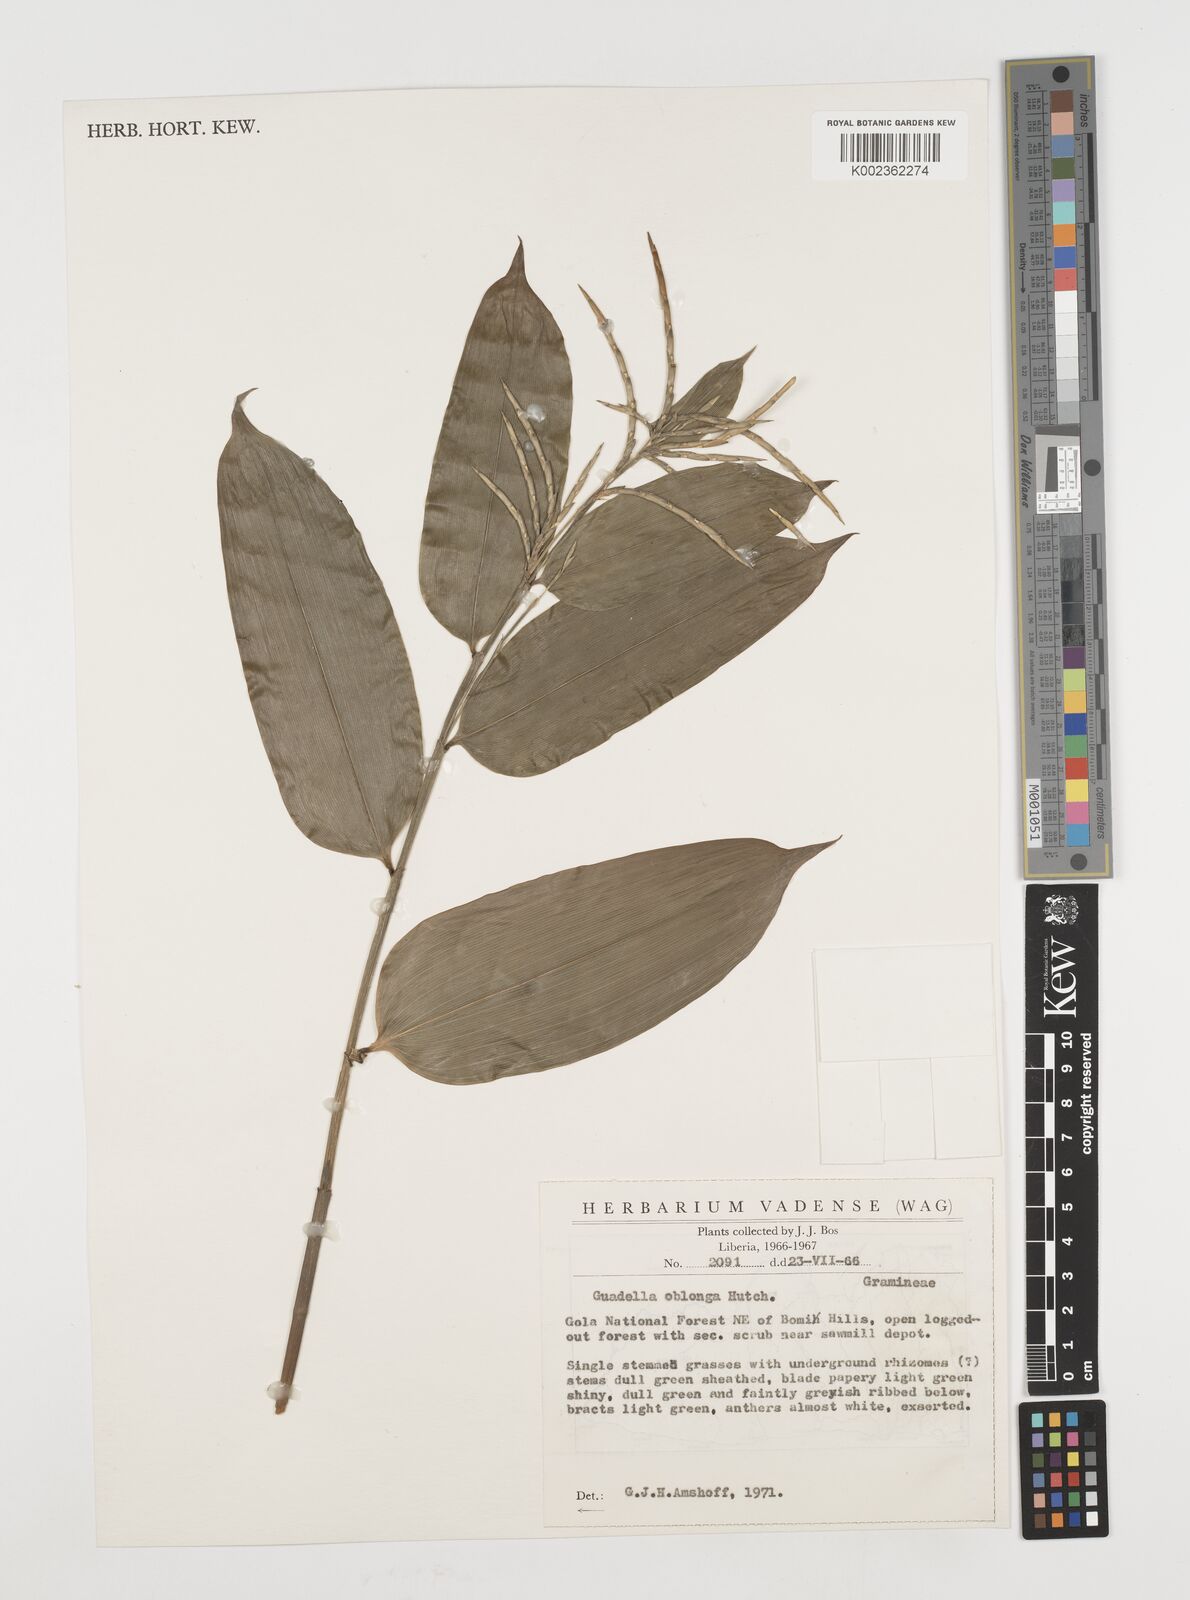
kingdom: Plantae
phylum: Tracheophyta
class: Liliopsida
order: Poales
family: Poaceae
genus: Guaduella
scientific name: Guaduella oblonga
